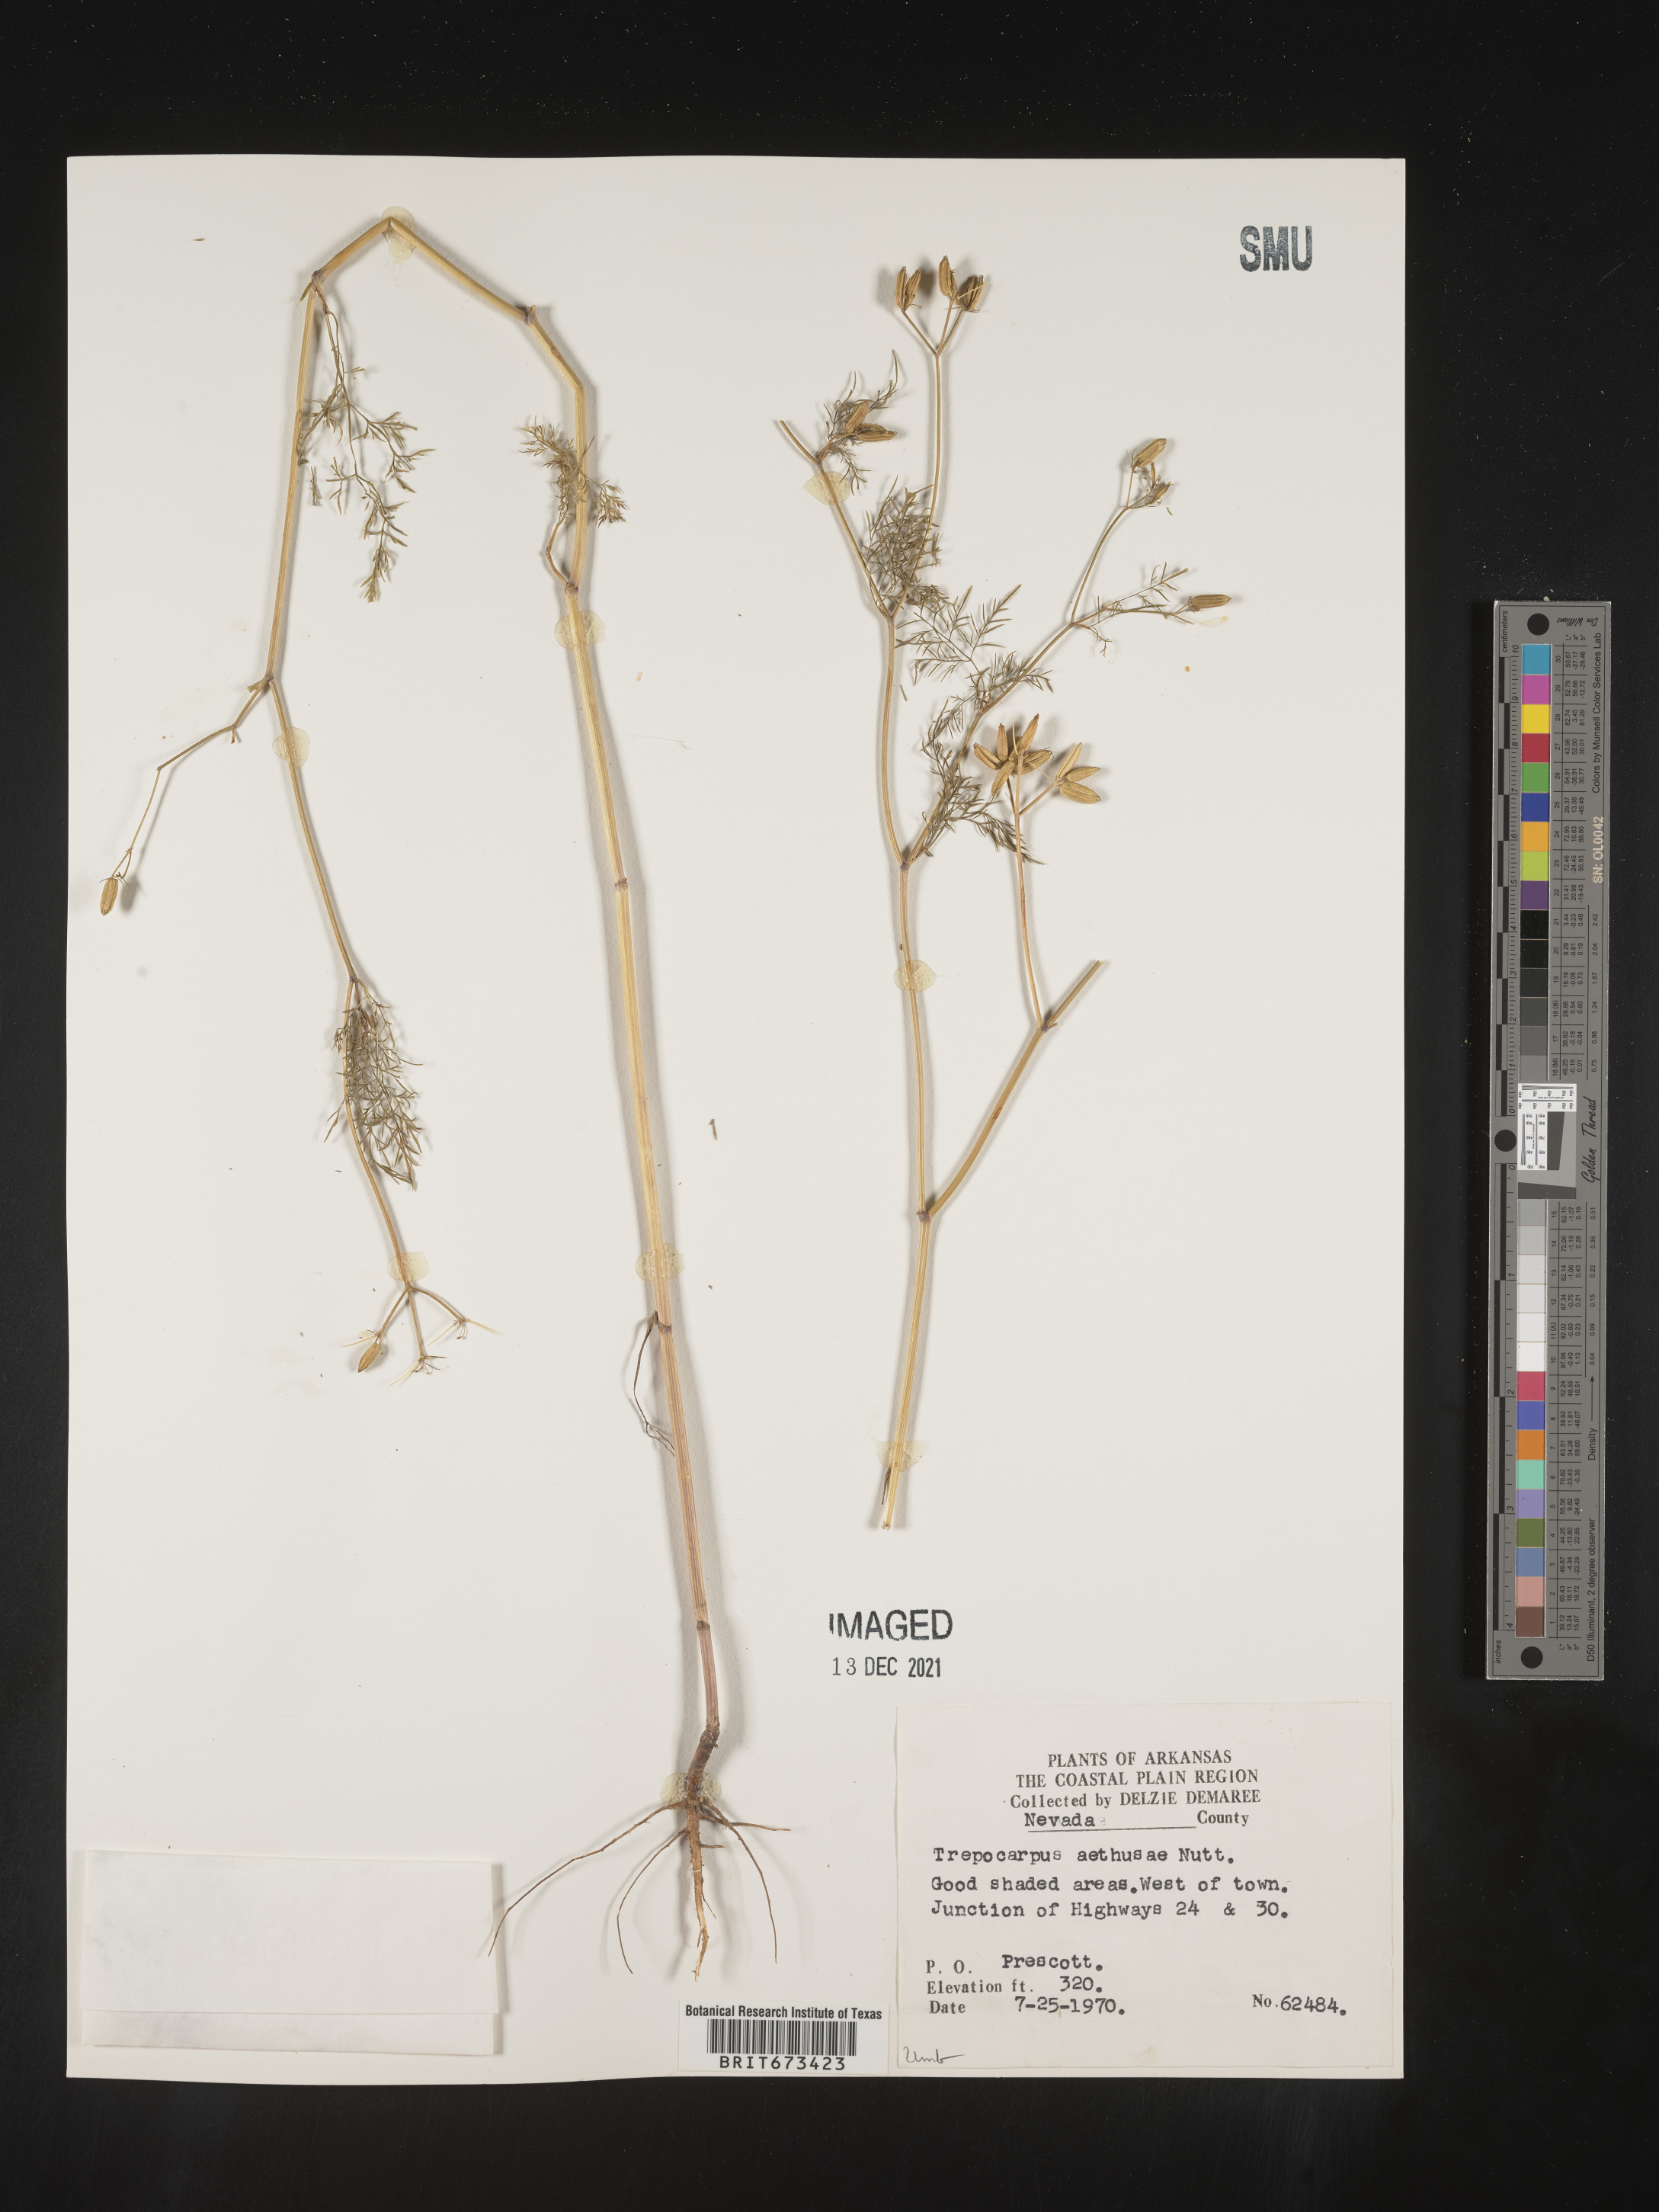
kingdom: Plantae
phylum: Tracheophyta
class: Magnoliopsida
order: Apiales
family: Apiaceae
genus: Trepocarpus
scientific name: Trepocarpus aethusae
